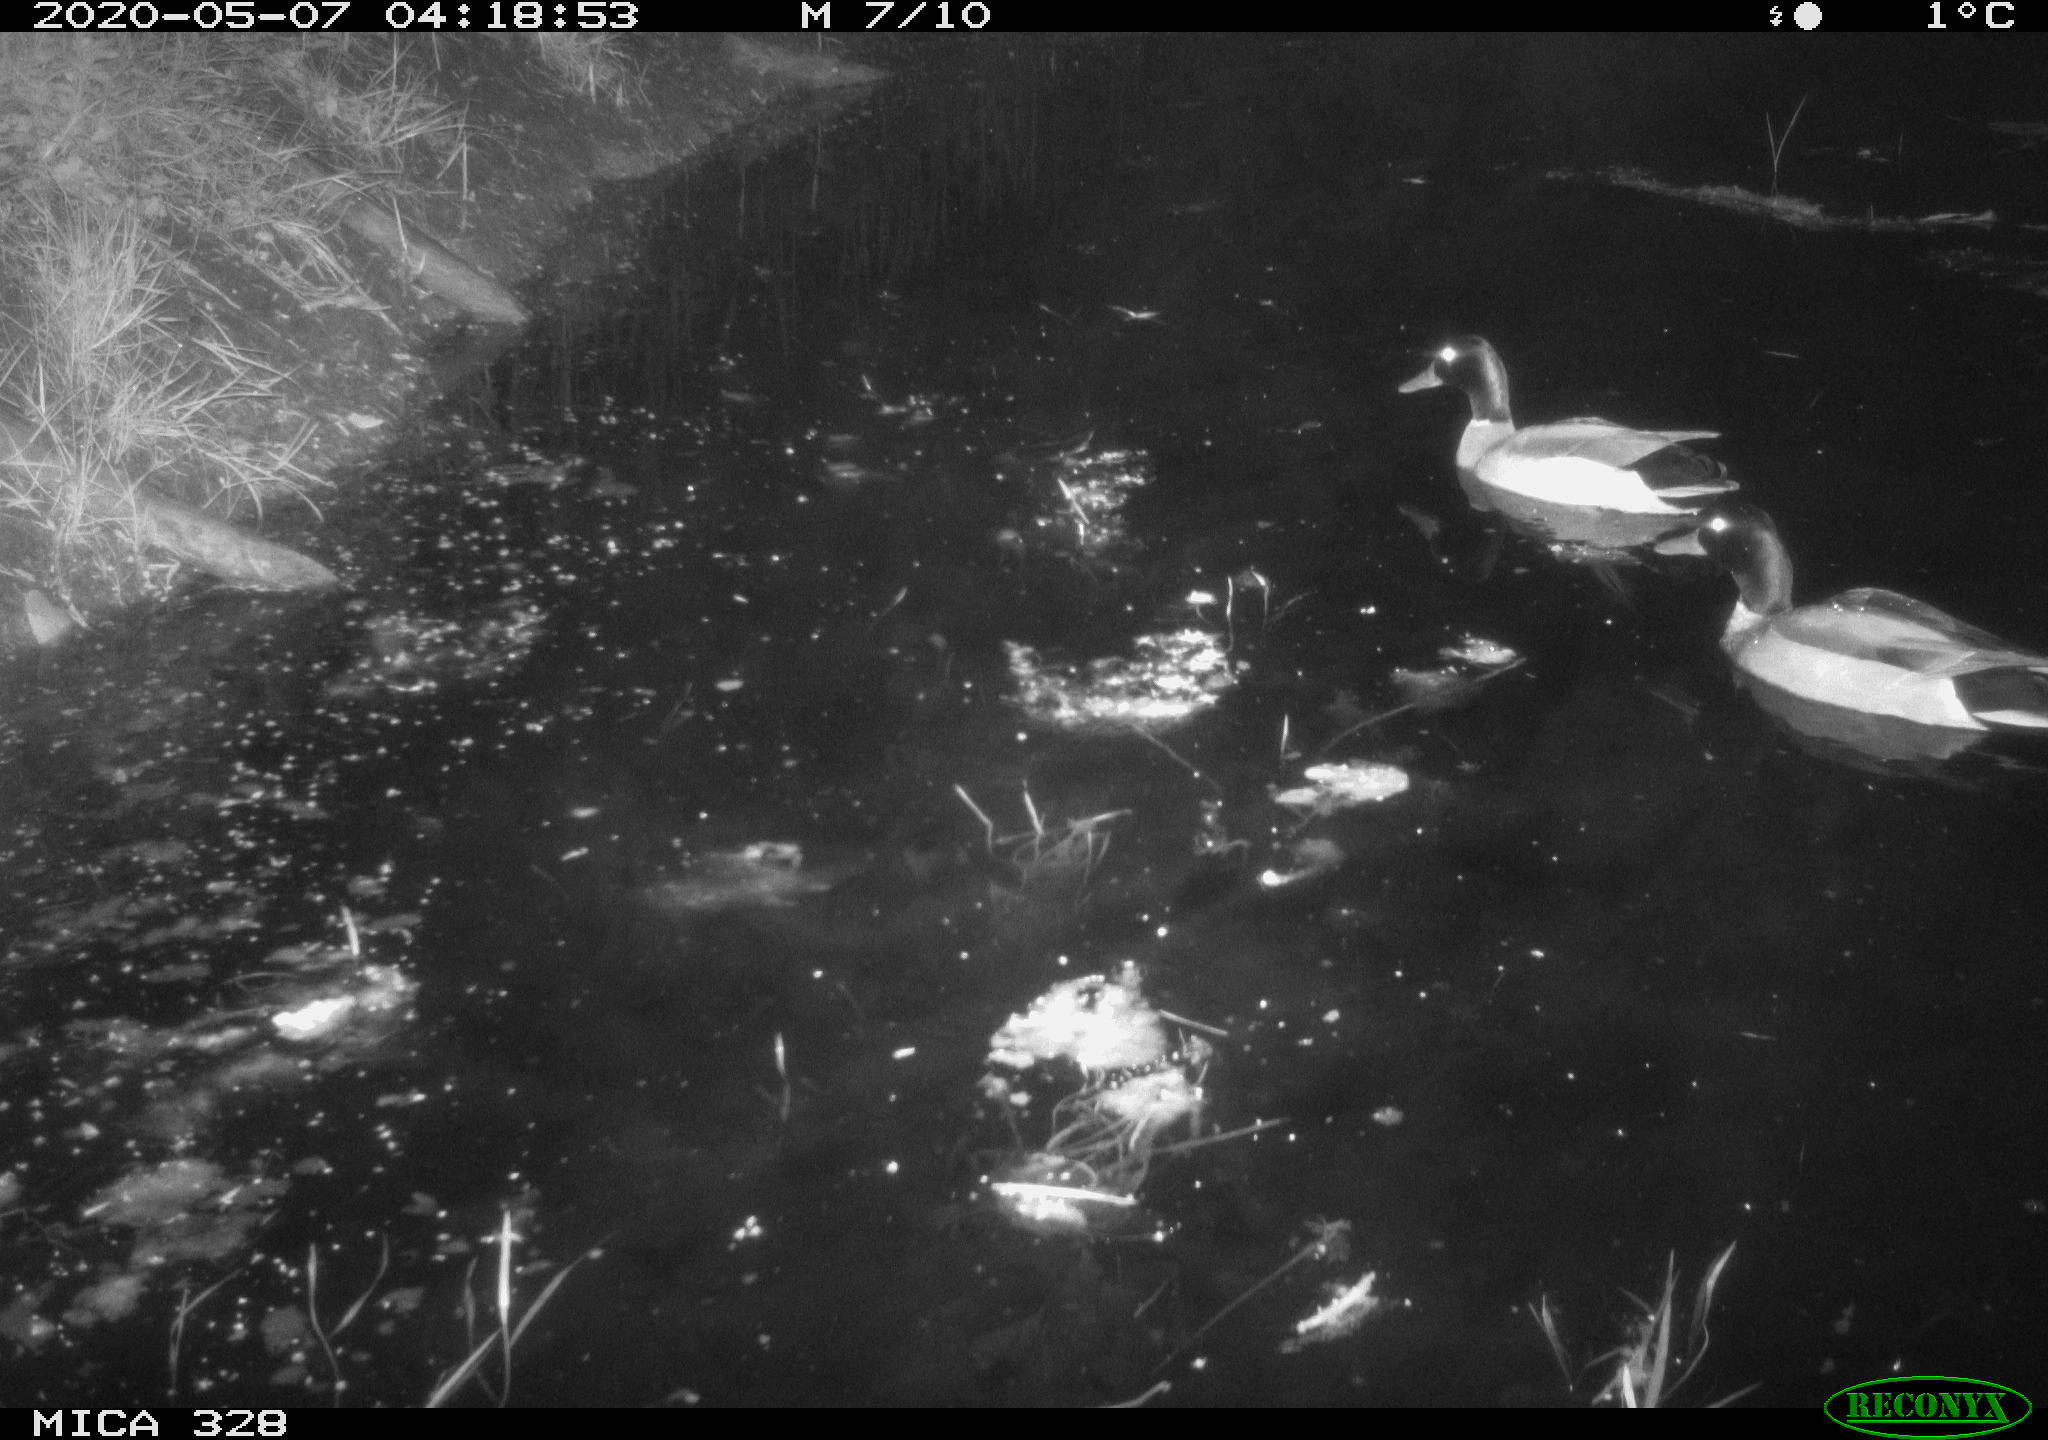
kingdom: Animalia
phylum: Chordata
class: Aves
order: Anseriformes
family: Anatidae
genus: Anas
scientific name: Anas platyrhynchos
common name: Mallard
